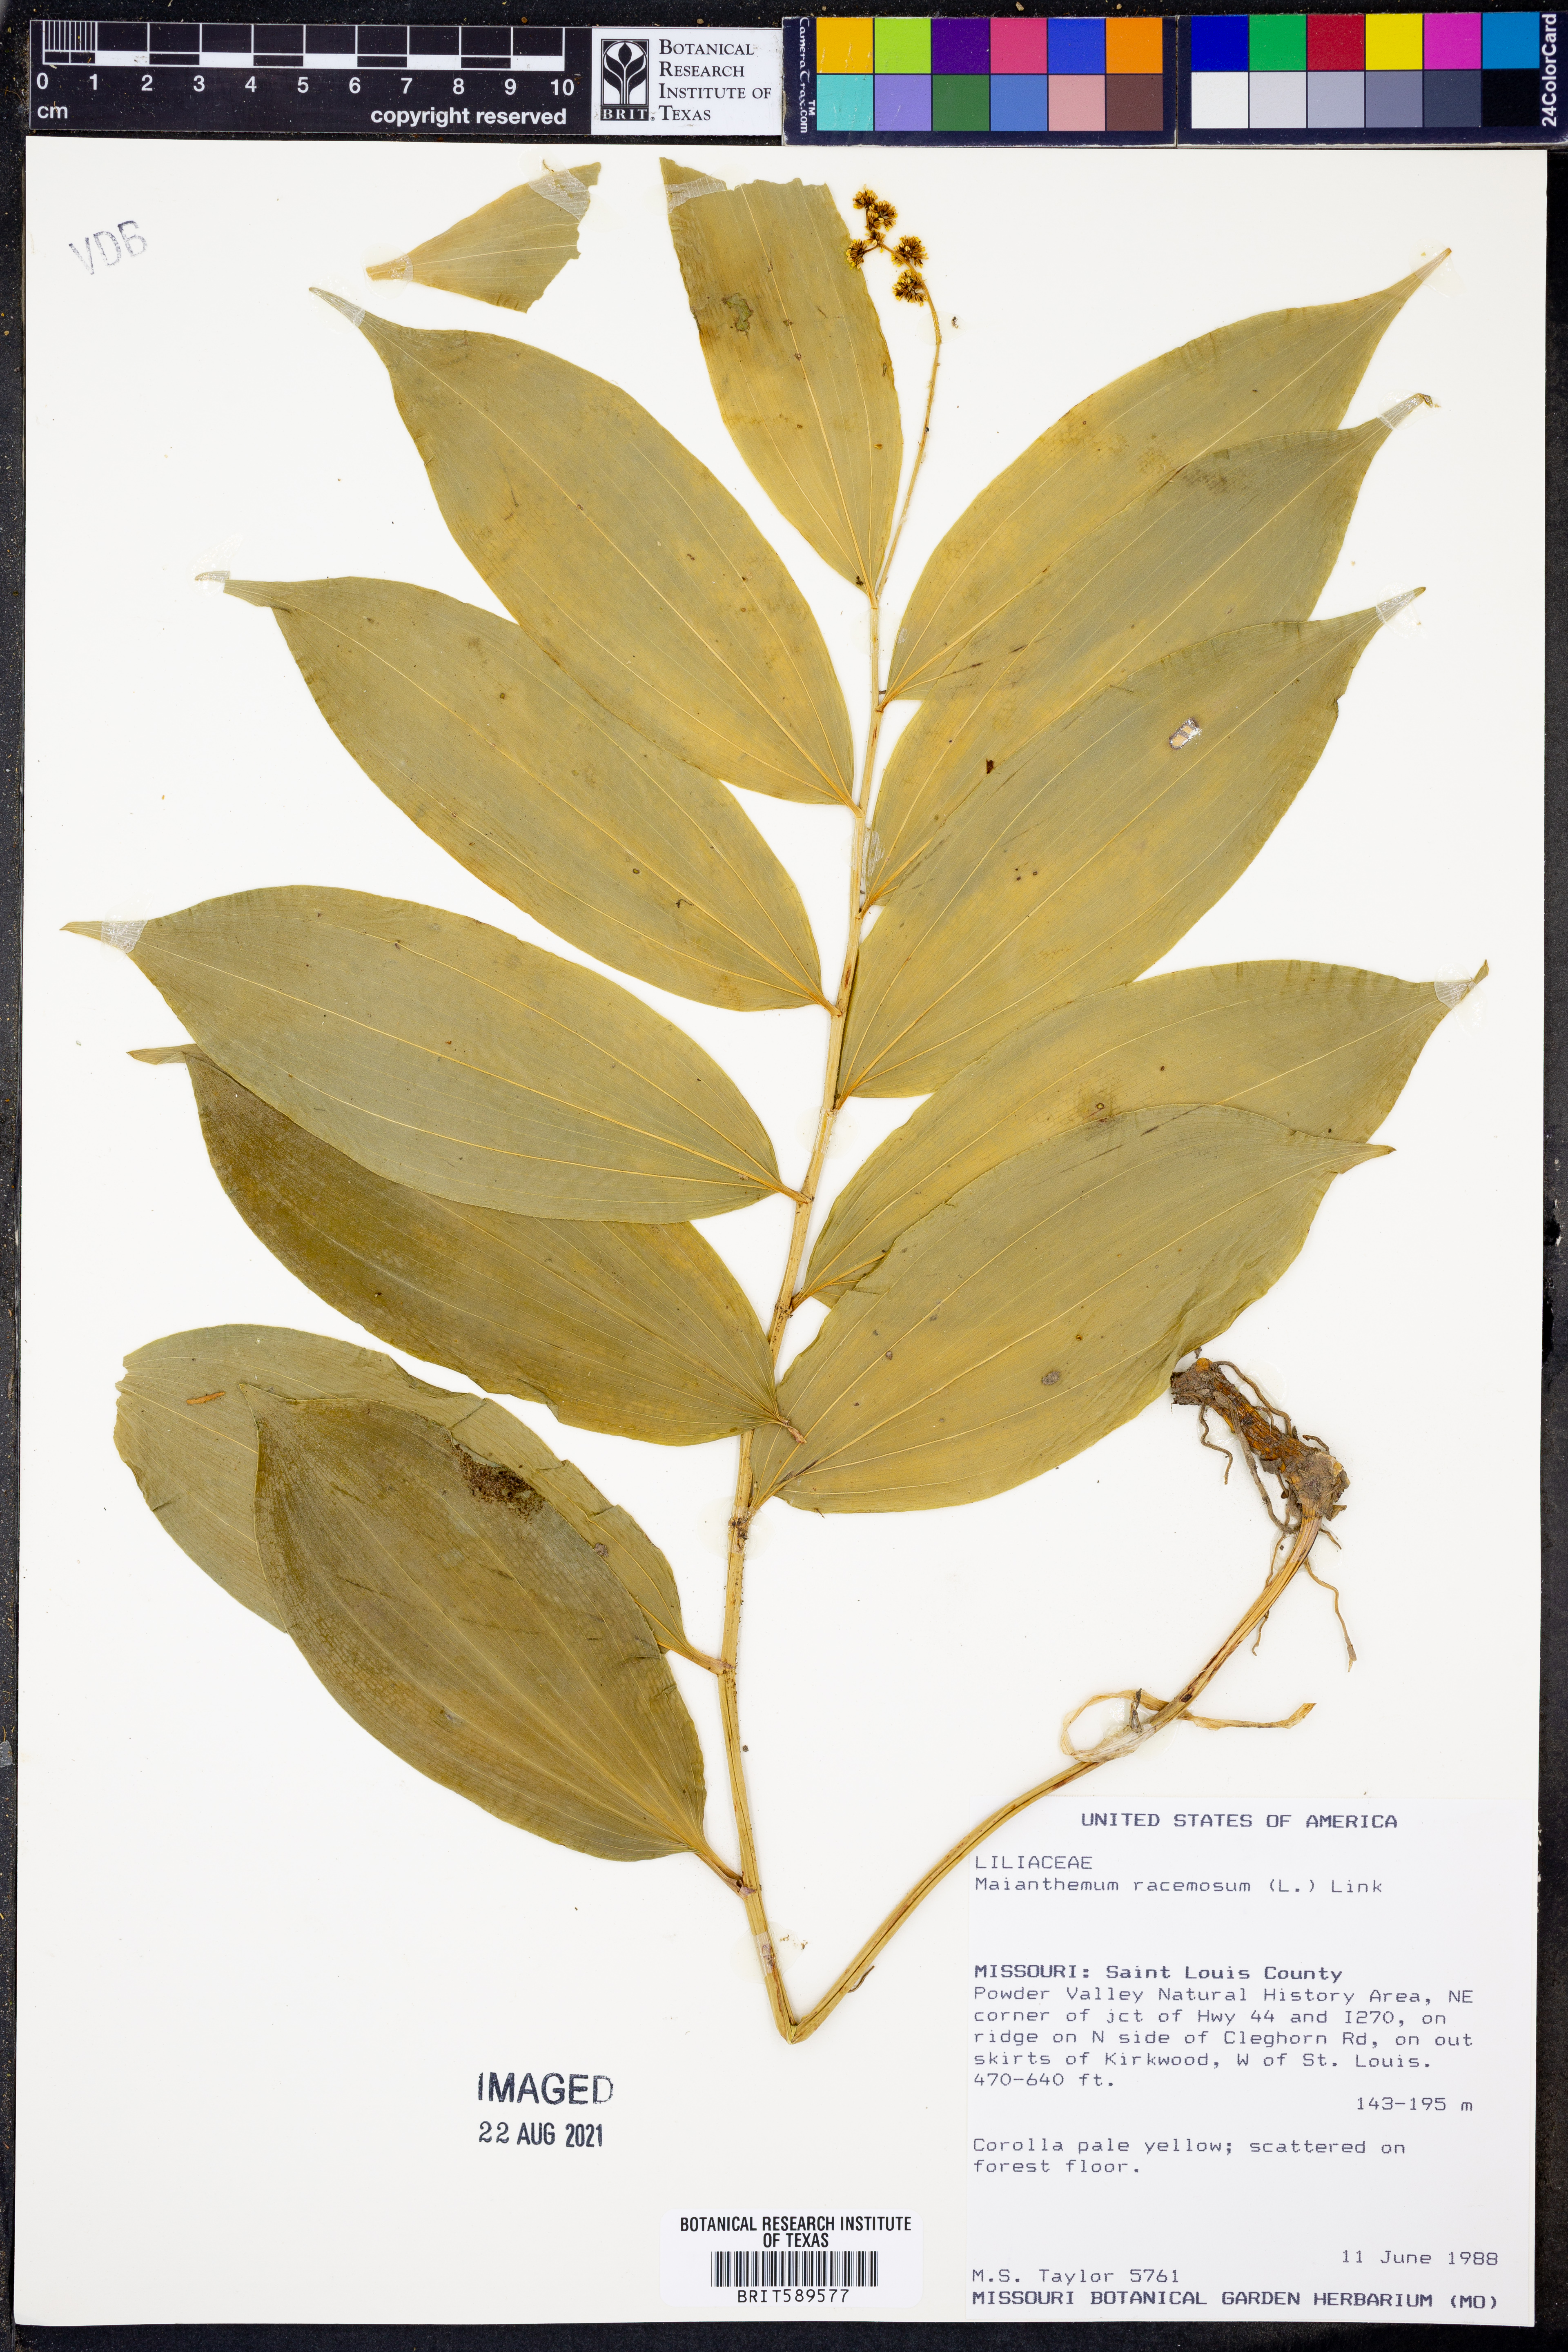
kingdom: Plantae
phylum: Tracheophyta
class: Liliopsida
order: Asparagales
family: Asparagaceae
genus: Maianthemum
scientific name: Maianthemum racemosum
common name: False spikenard
